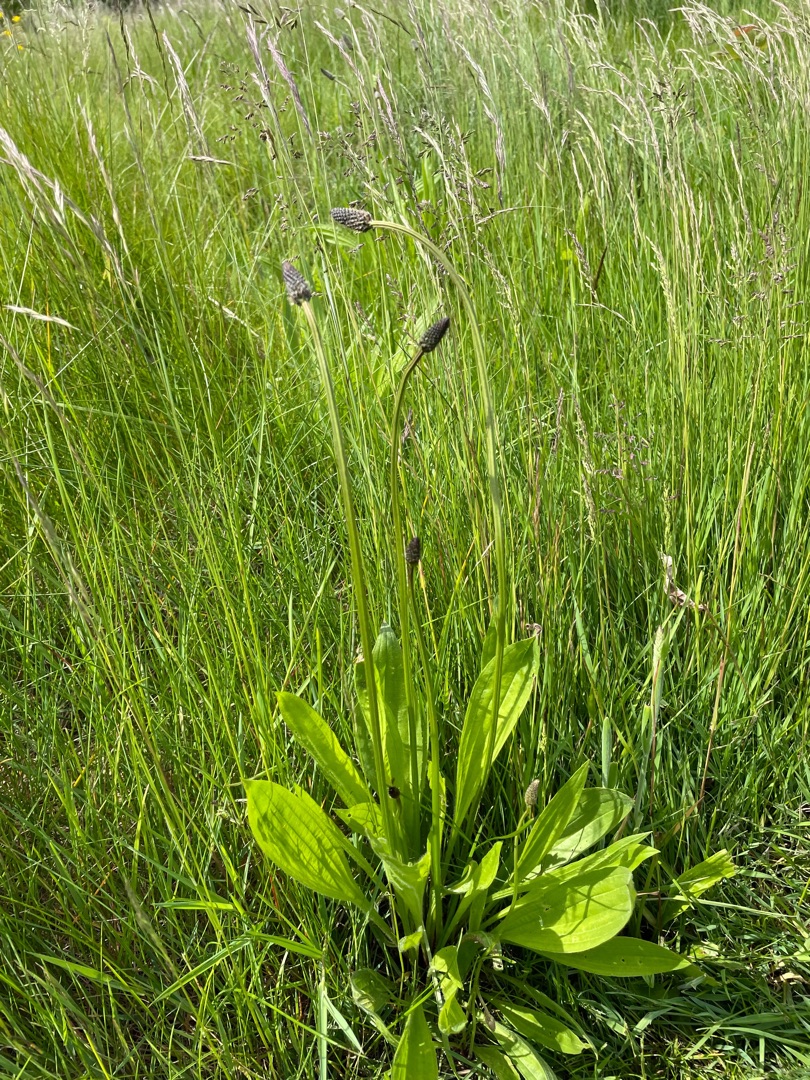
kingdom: Plantae
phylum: Tracheophyta
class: Magnoliopsida
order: Lamiales
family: Plantaginaceae
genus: Plantago
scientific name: Plantago lanceolata
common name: Lancet-vejbred
